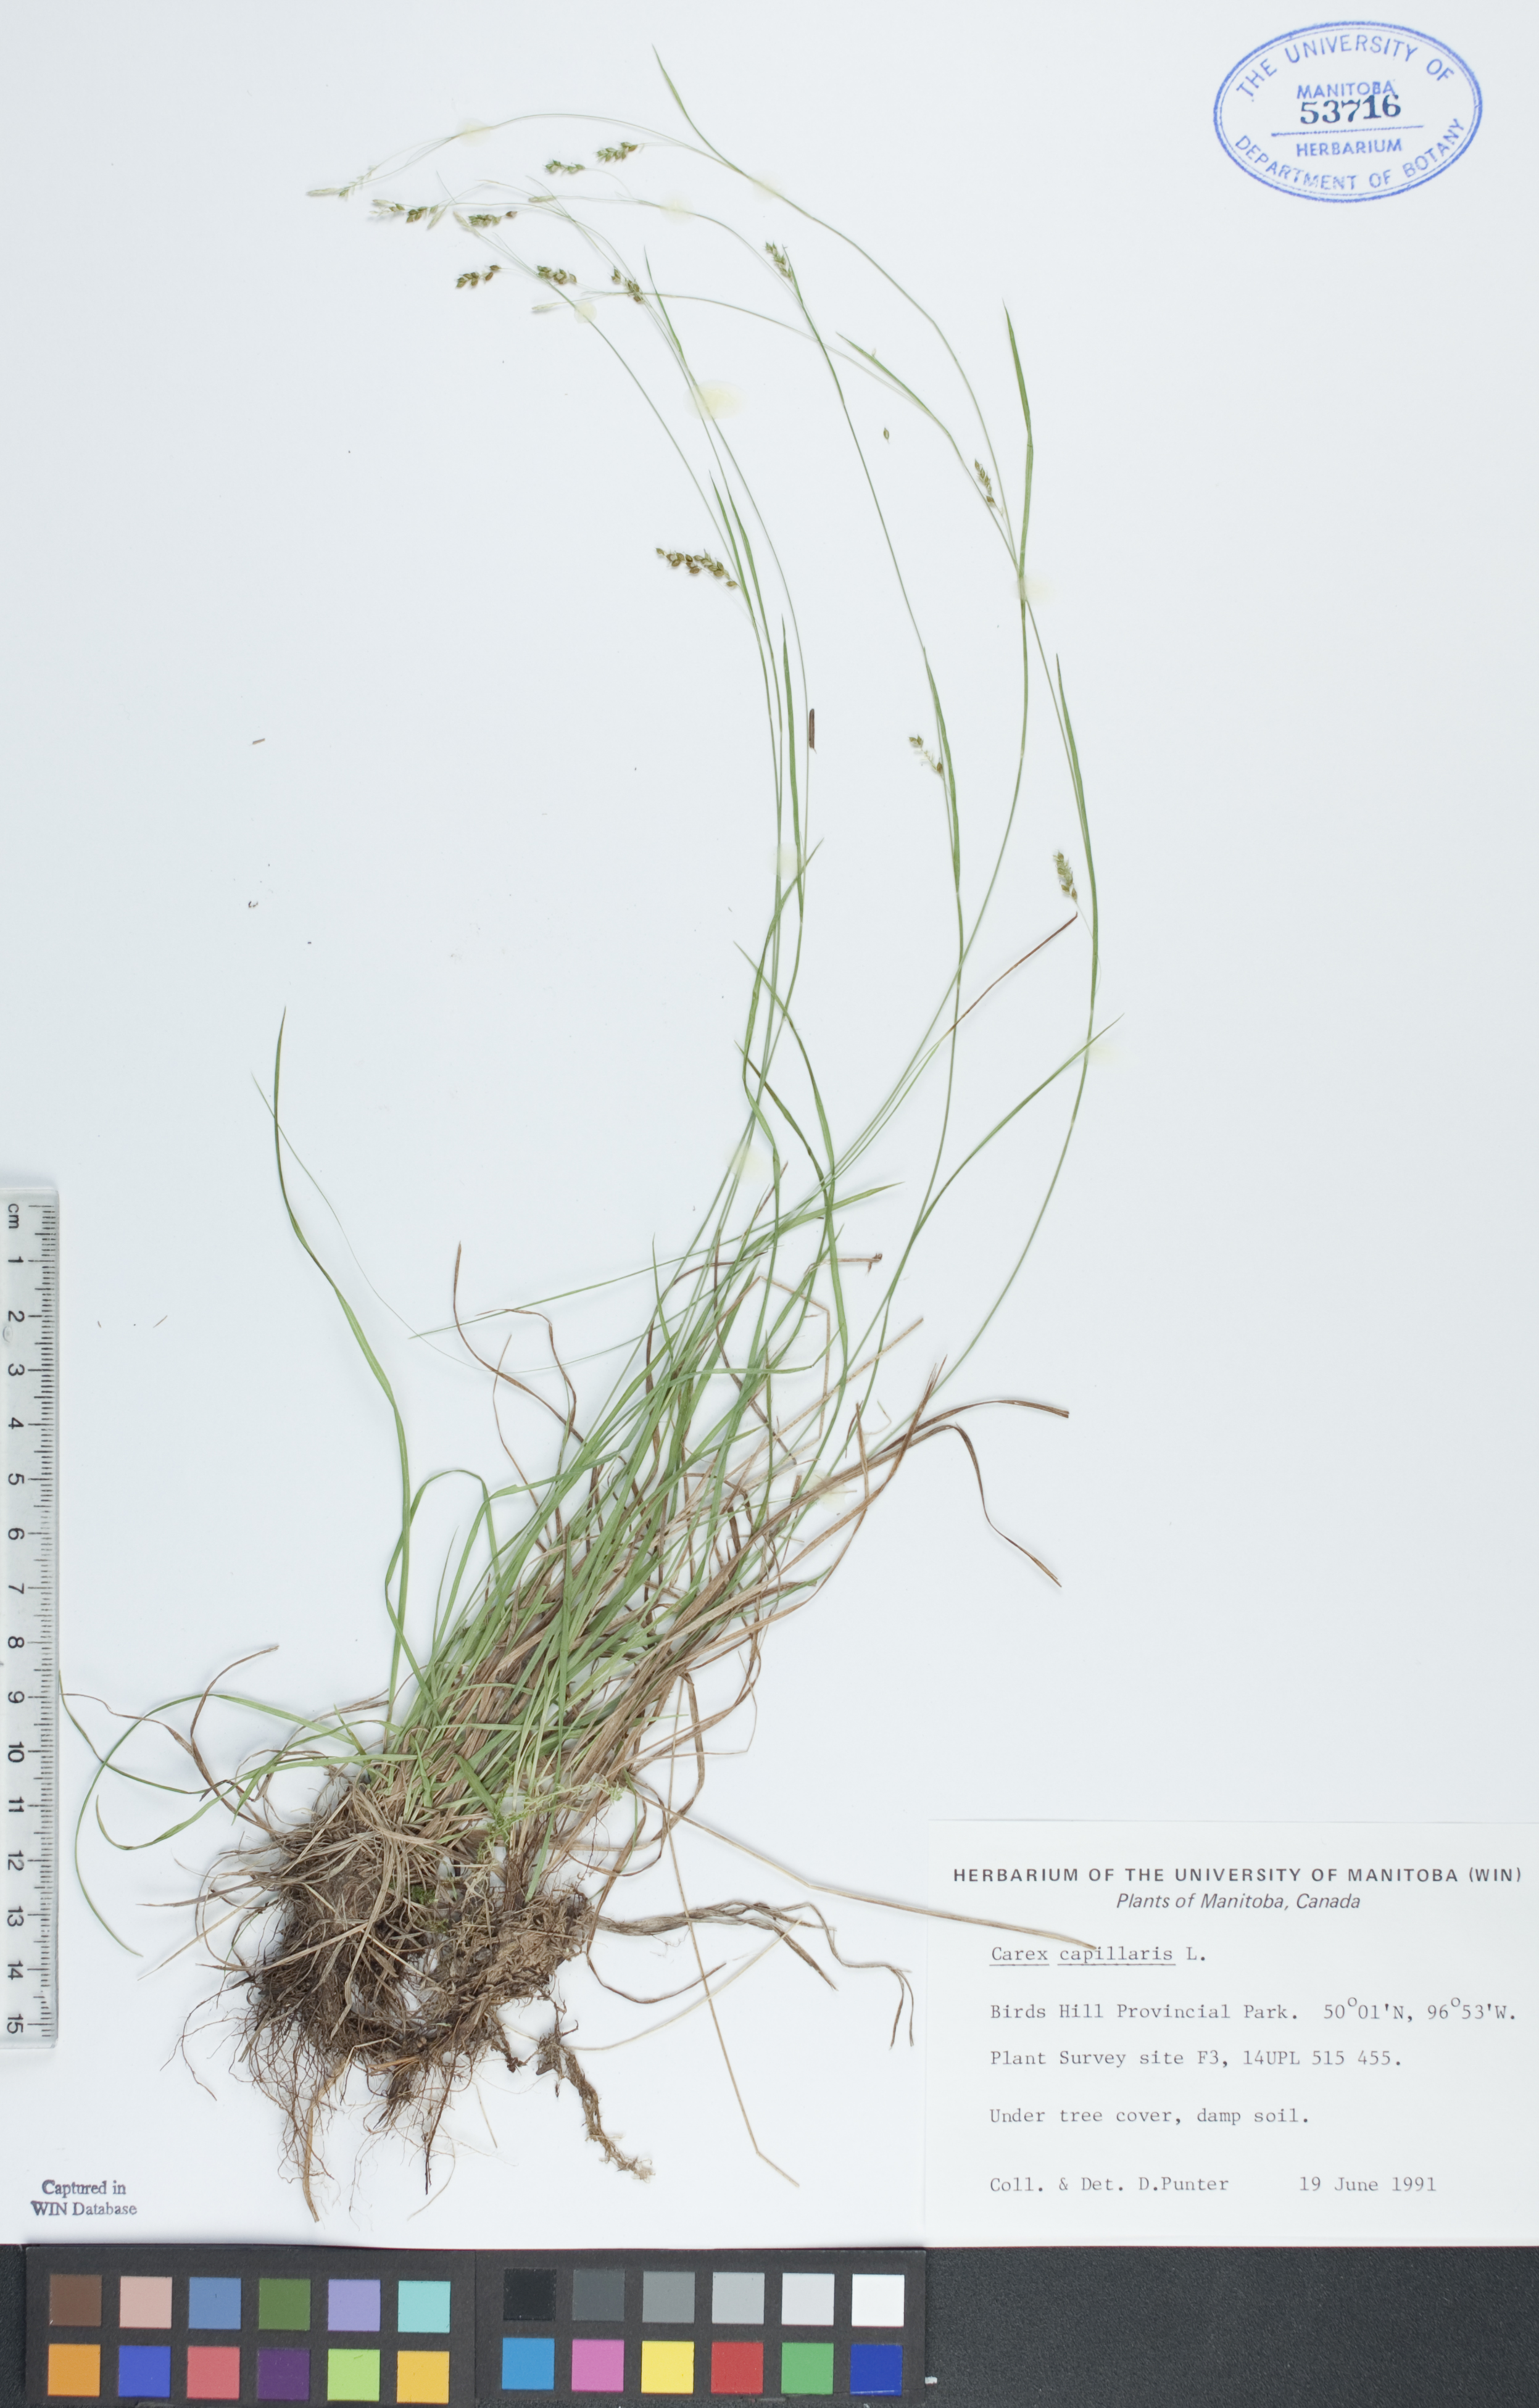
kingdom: Plantae
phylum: Tracheophyta
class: Liliopsida
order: Poales
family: Cyperaceae
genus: Carex
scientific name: Carex capillaris
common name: Hair sedge
